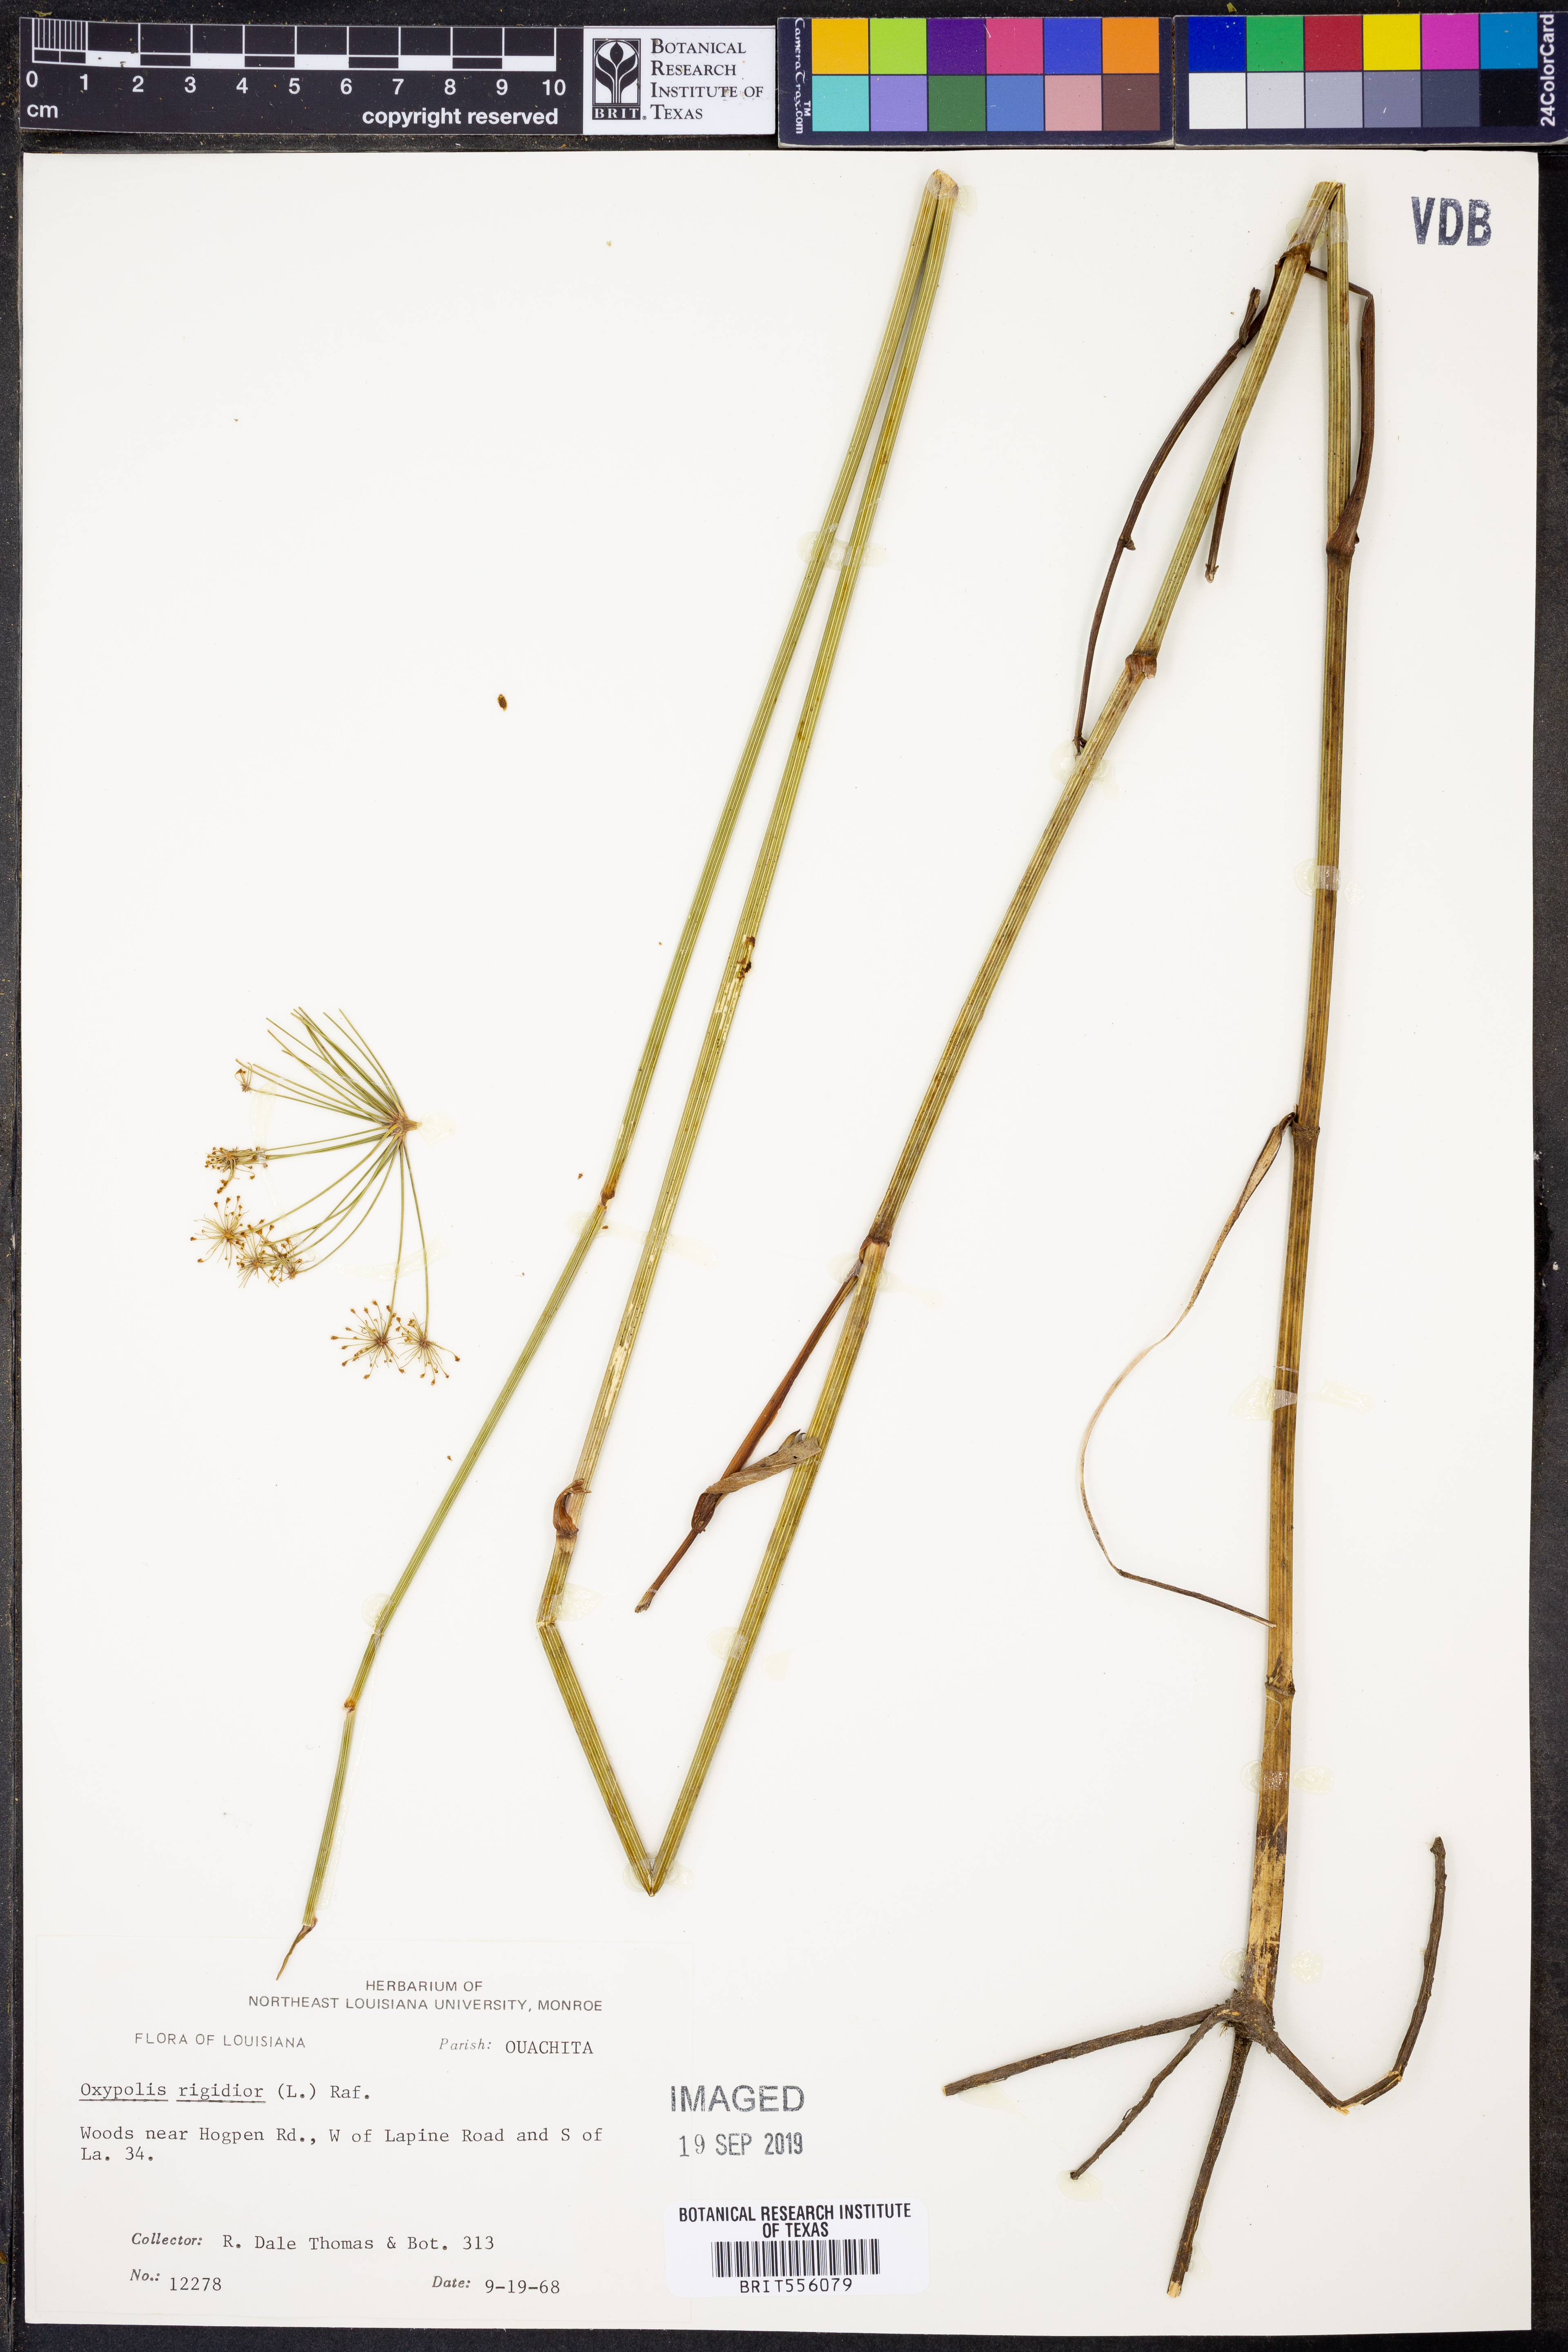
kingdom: Plantae
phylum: Tracheophyta
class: Magnoliopsida
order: Apiales
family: Apiaceae
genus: Oxypolis
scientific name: Oxypolis rigidior
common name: Cowbane
